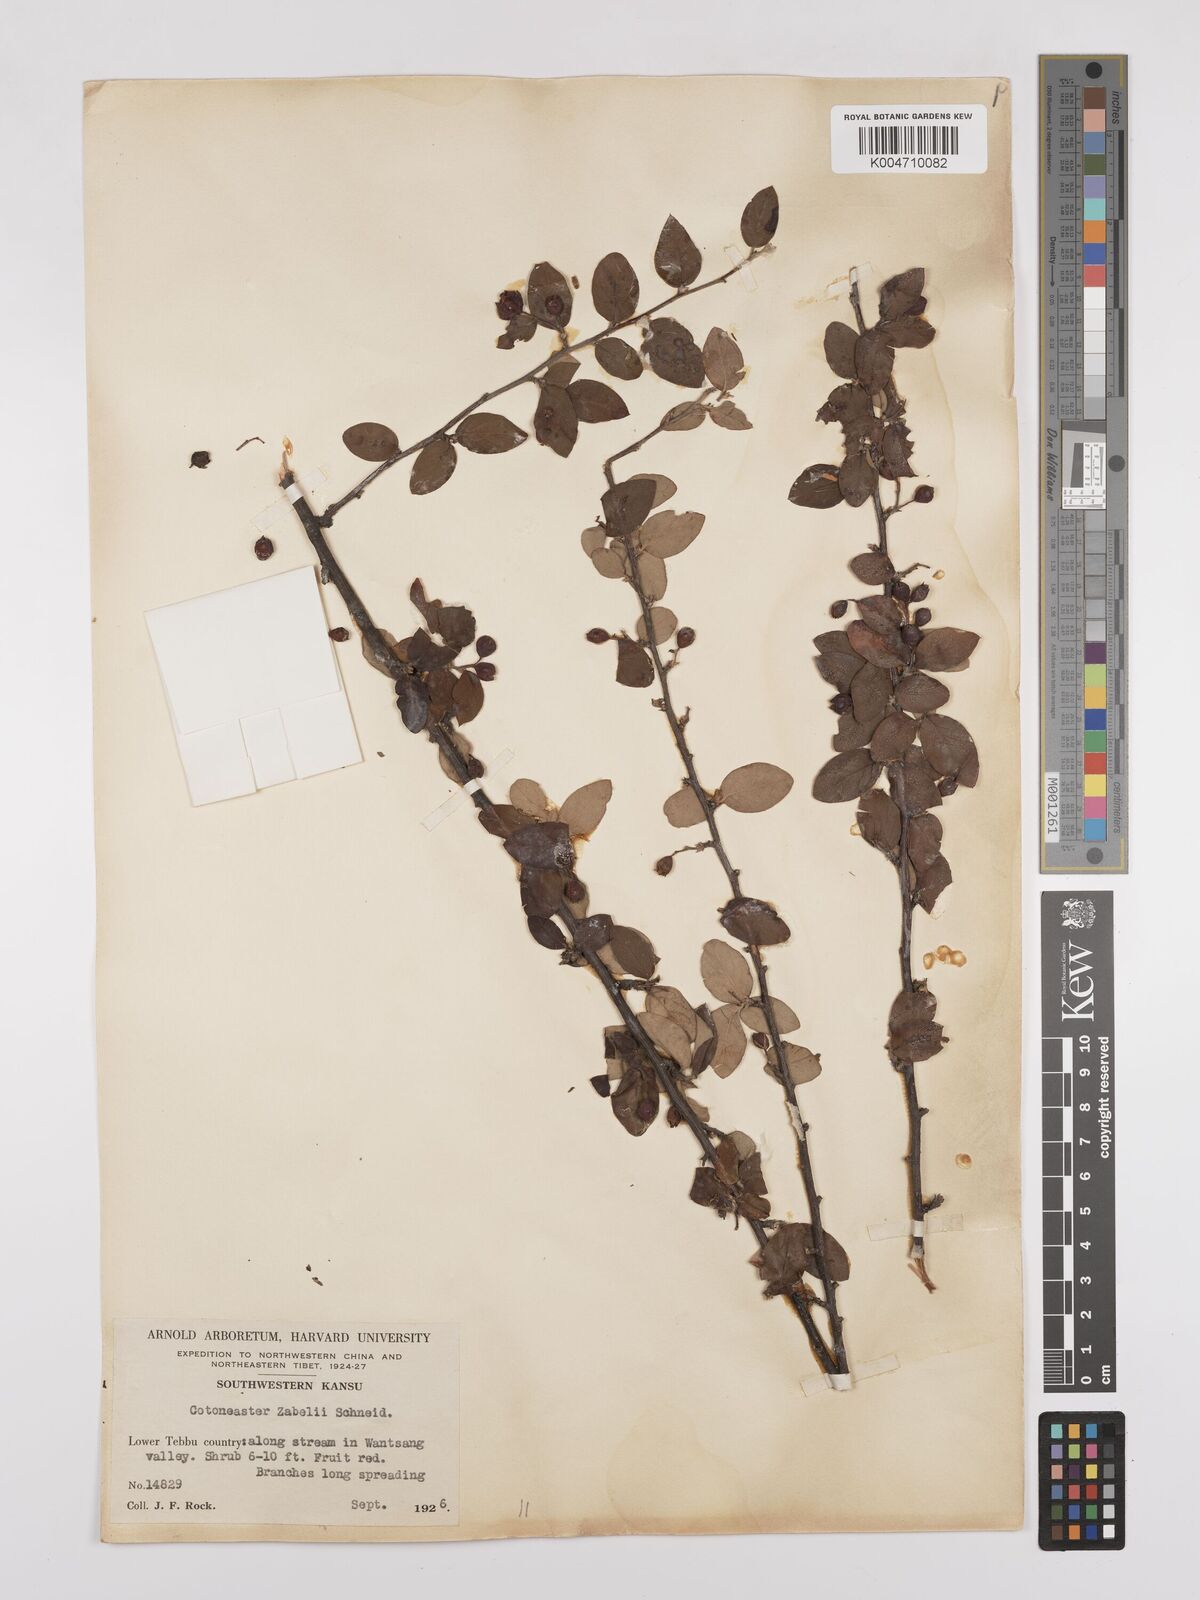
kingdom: Plantae
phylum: Tracheophyta
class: Magnoliopsida
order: Rosales
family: Rosaceae
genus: Cotoneaster
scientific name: Cotoneaster zabelii
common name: Cherryred cotoneaster
